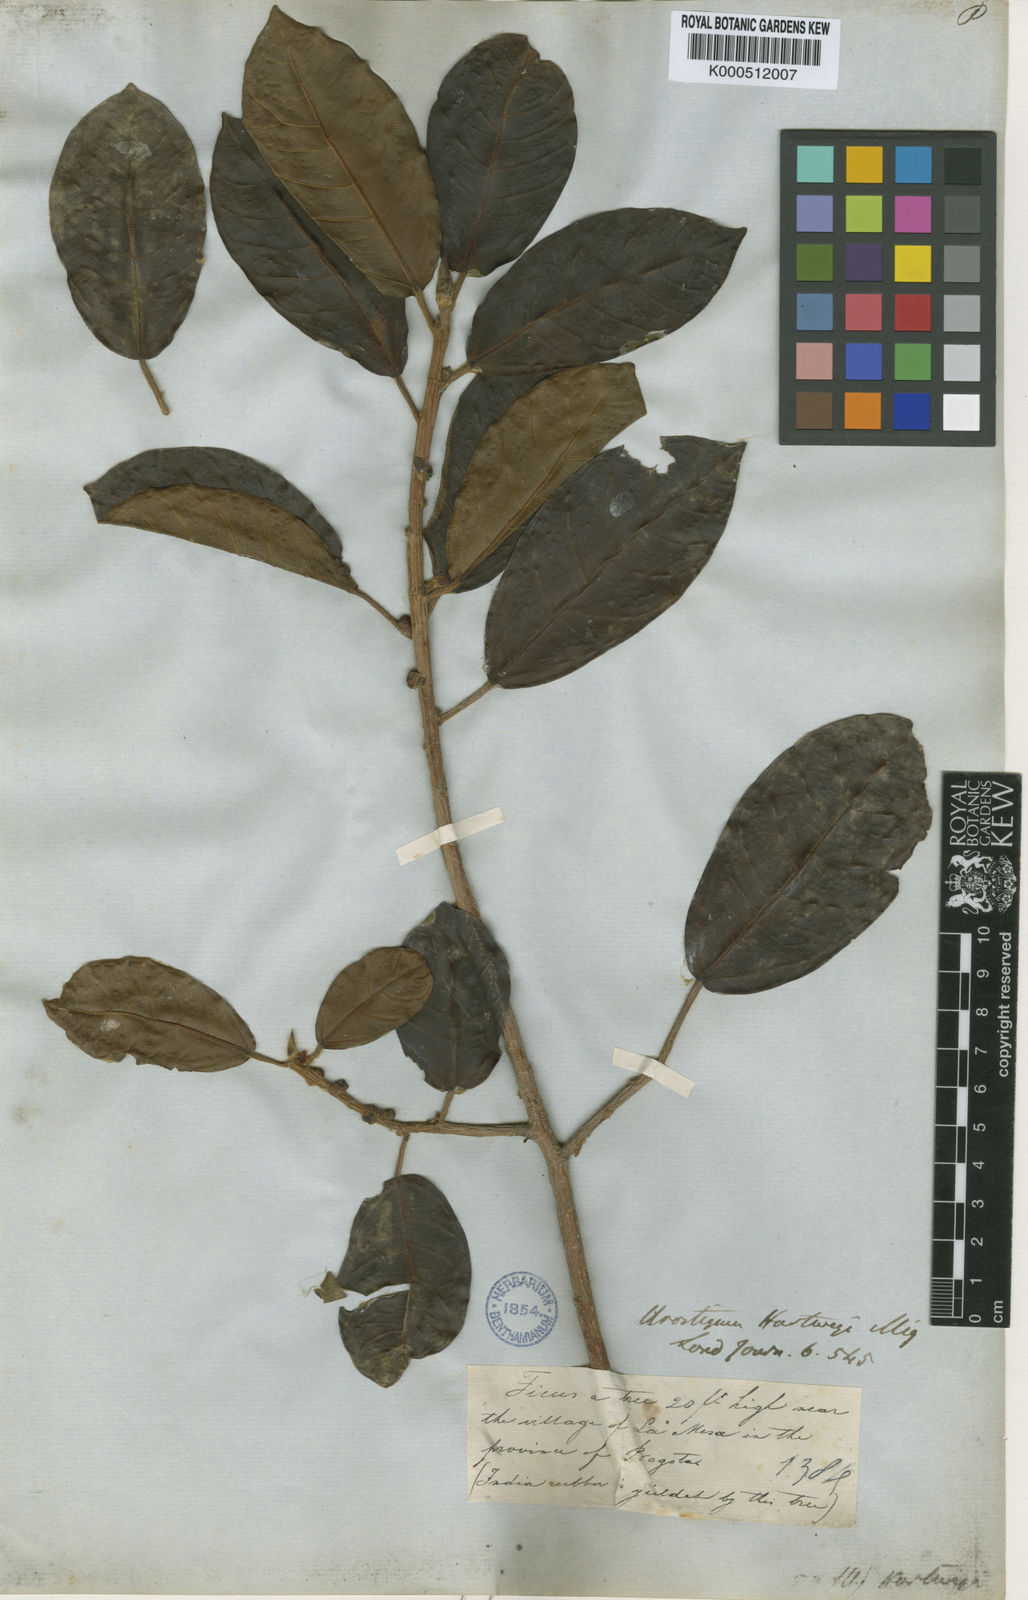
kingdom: Plantae
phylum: Tracheophyta
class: Magnoliopsida
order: Rosales
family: Moraceae
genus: Ficus
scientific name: Ficus hartwegii
